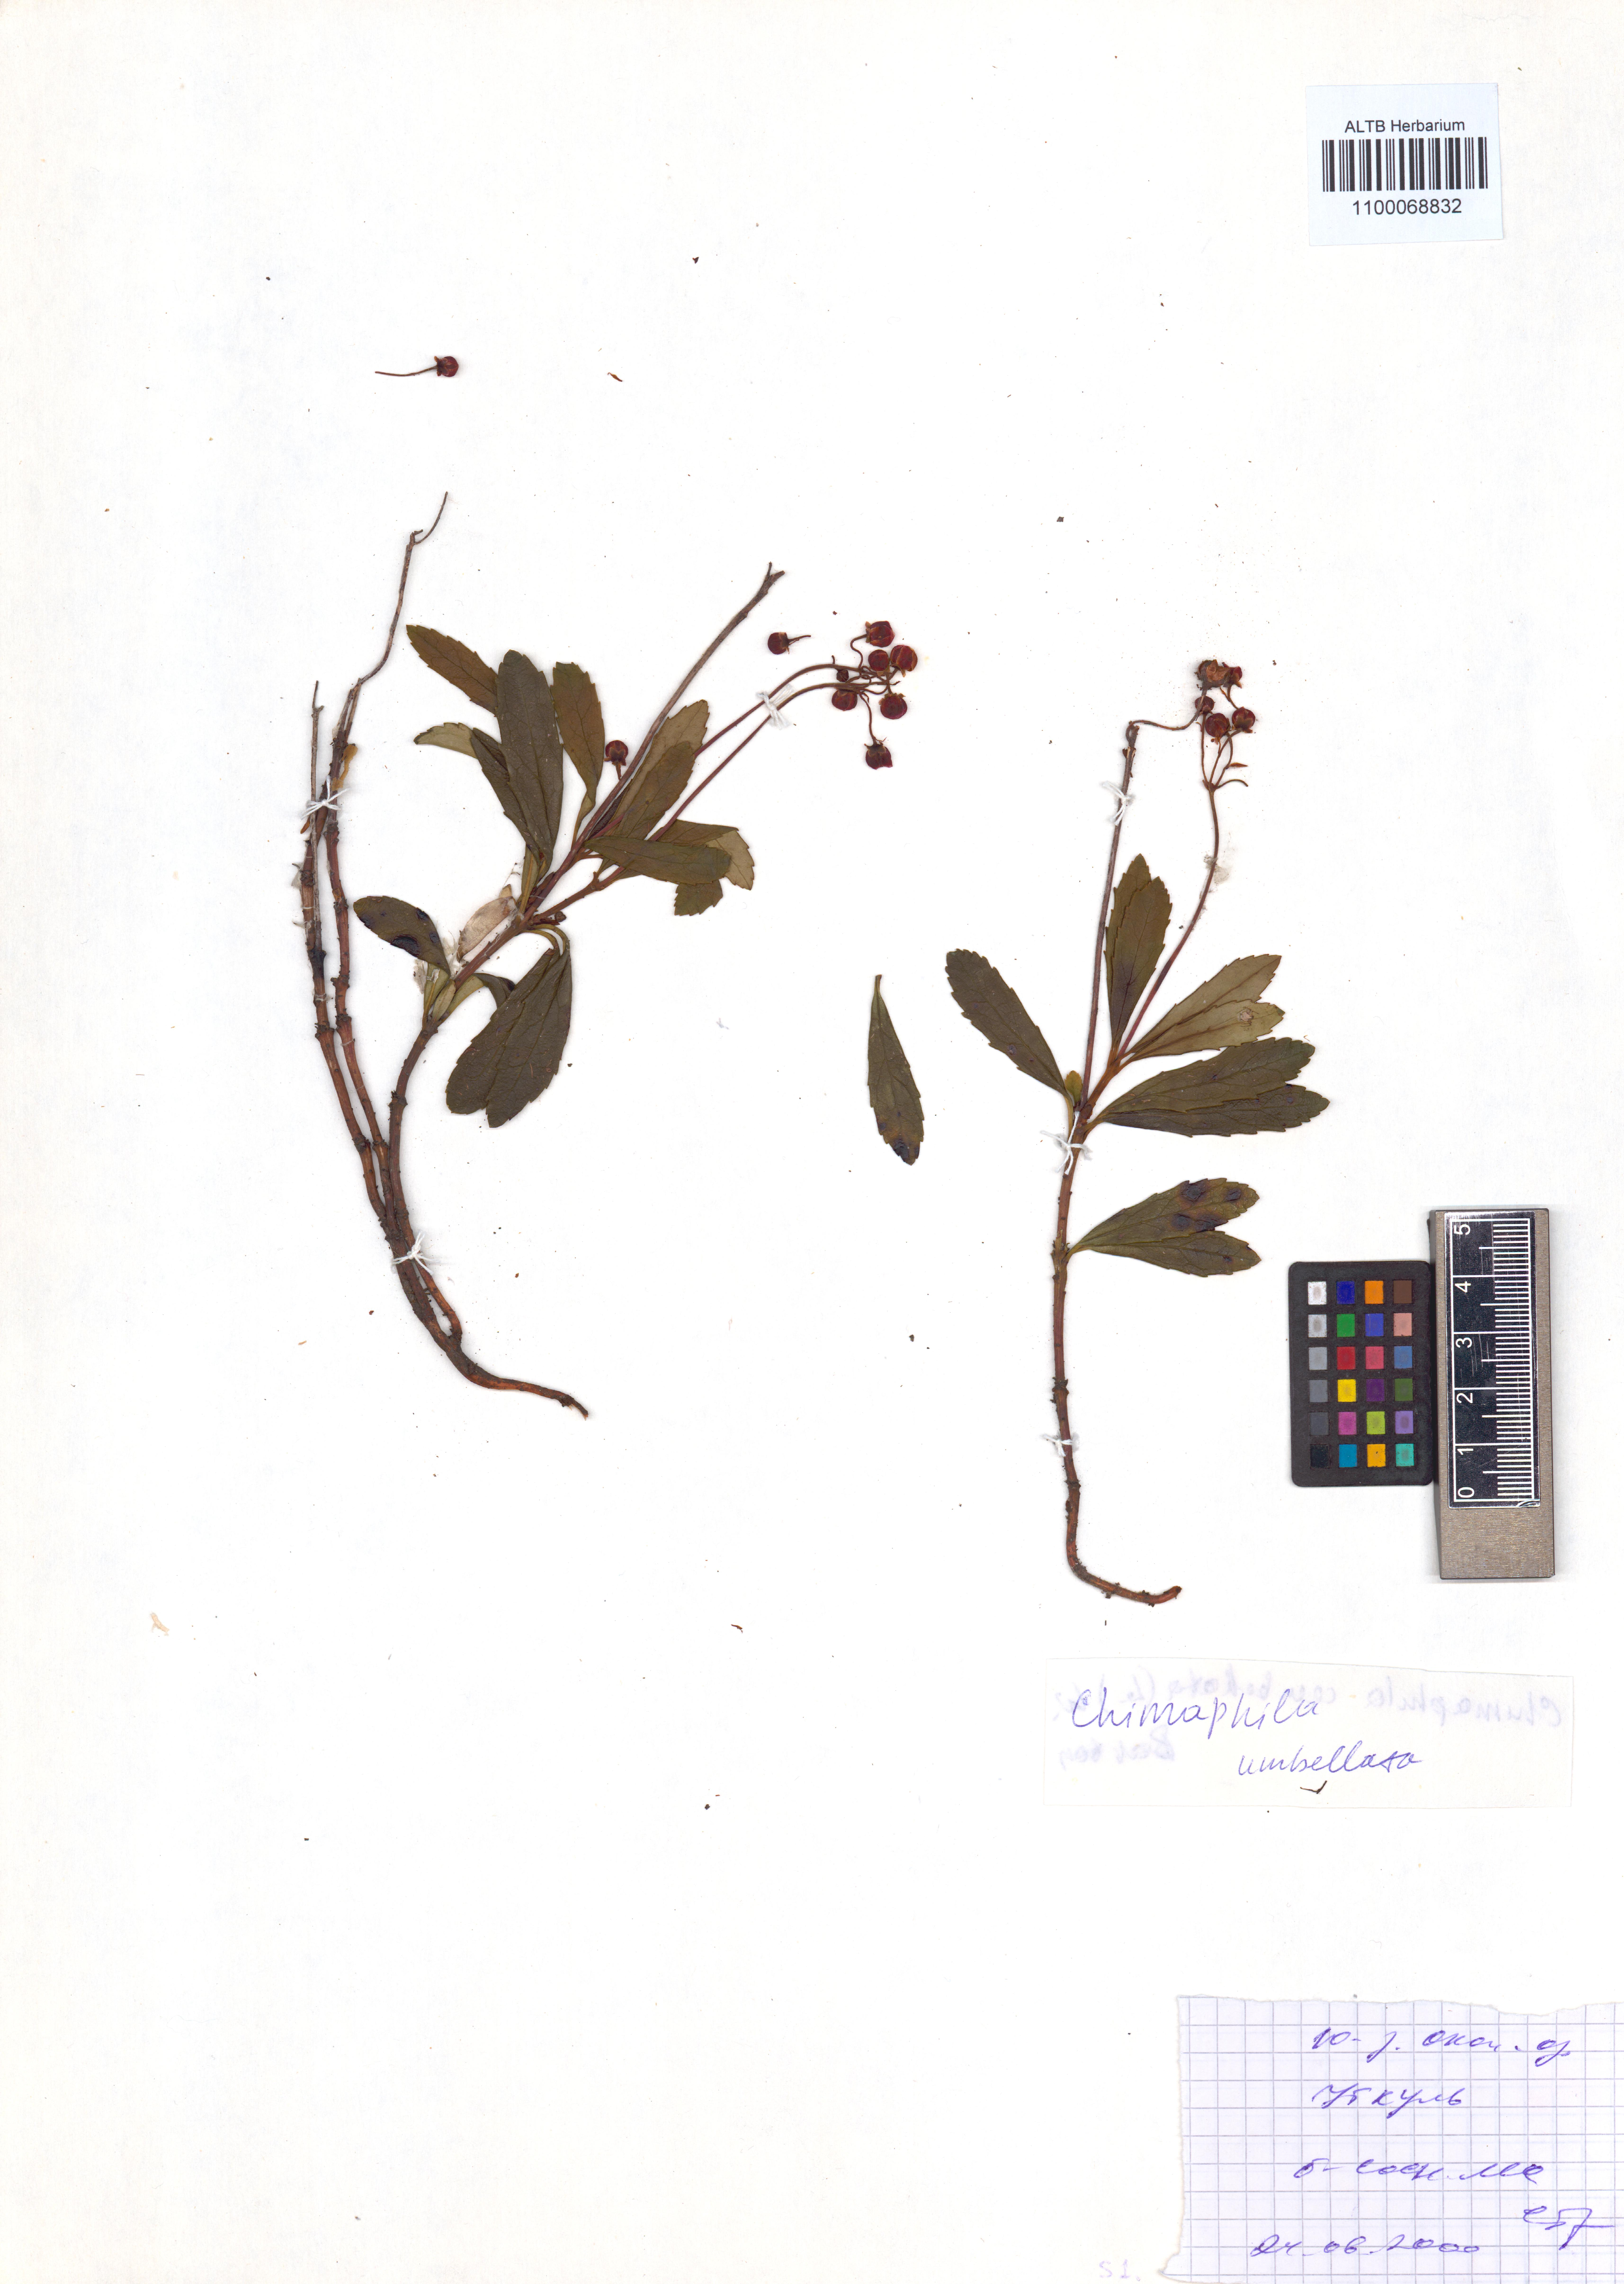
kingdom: Plantae
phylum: Tracheophyta
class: Magnoliopsida
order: Ericales
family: Ericaceae
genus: Chimaphila
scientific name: Chimaphila umbellata
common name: Pipsissewa
